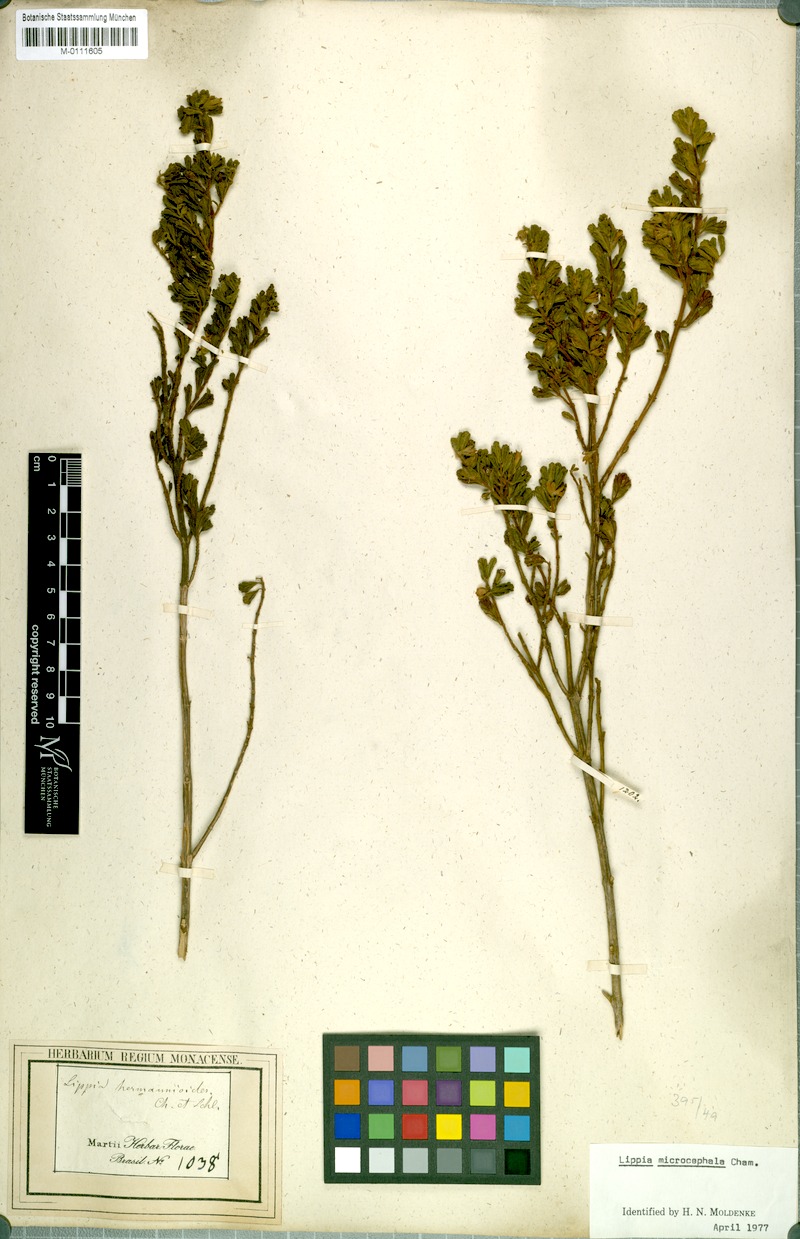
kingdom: Plantae
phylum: Tracheophyta
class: Magnoliopsida
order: Lamiales
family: Verbenaceae
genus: Lippia
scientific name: Lippia hermannioides
